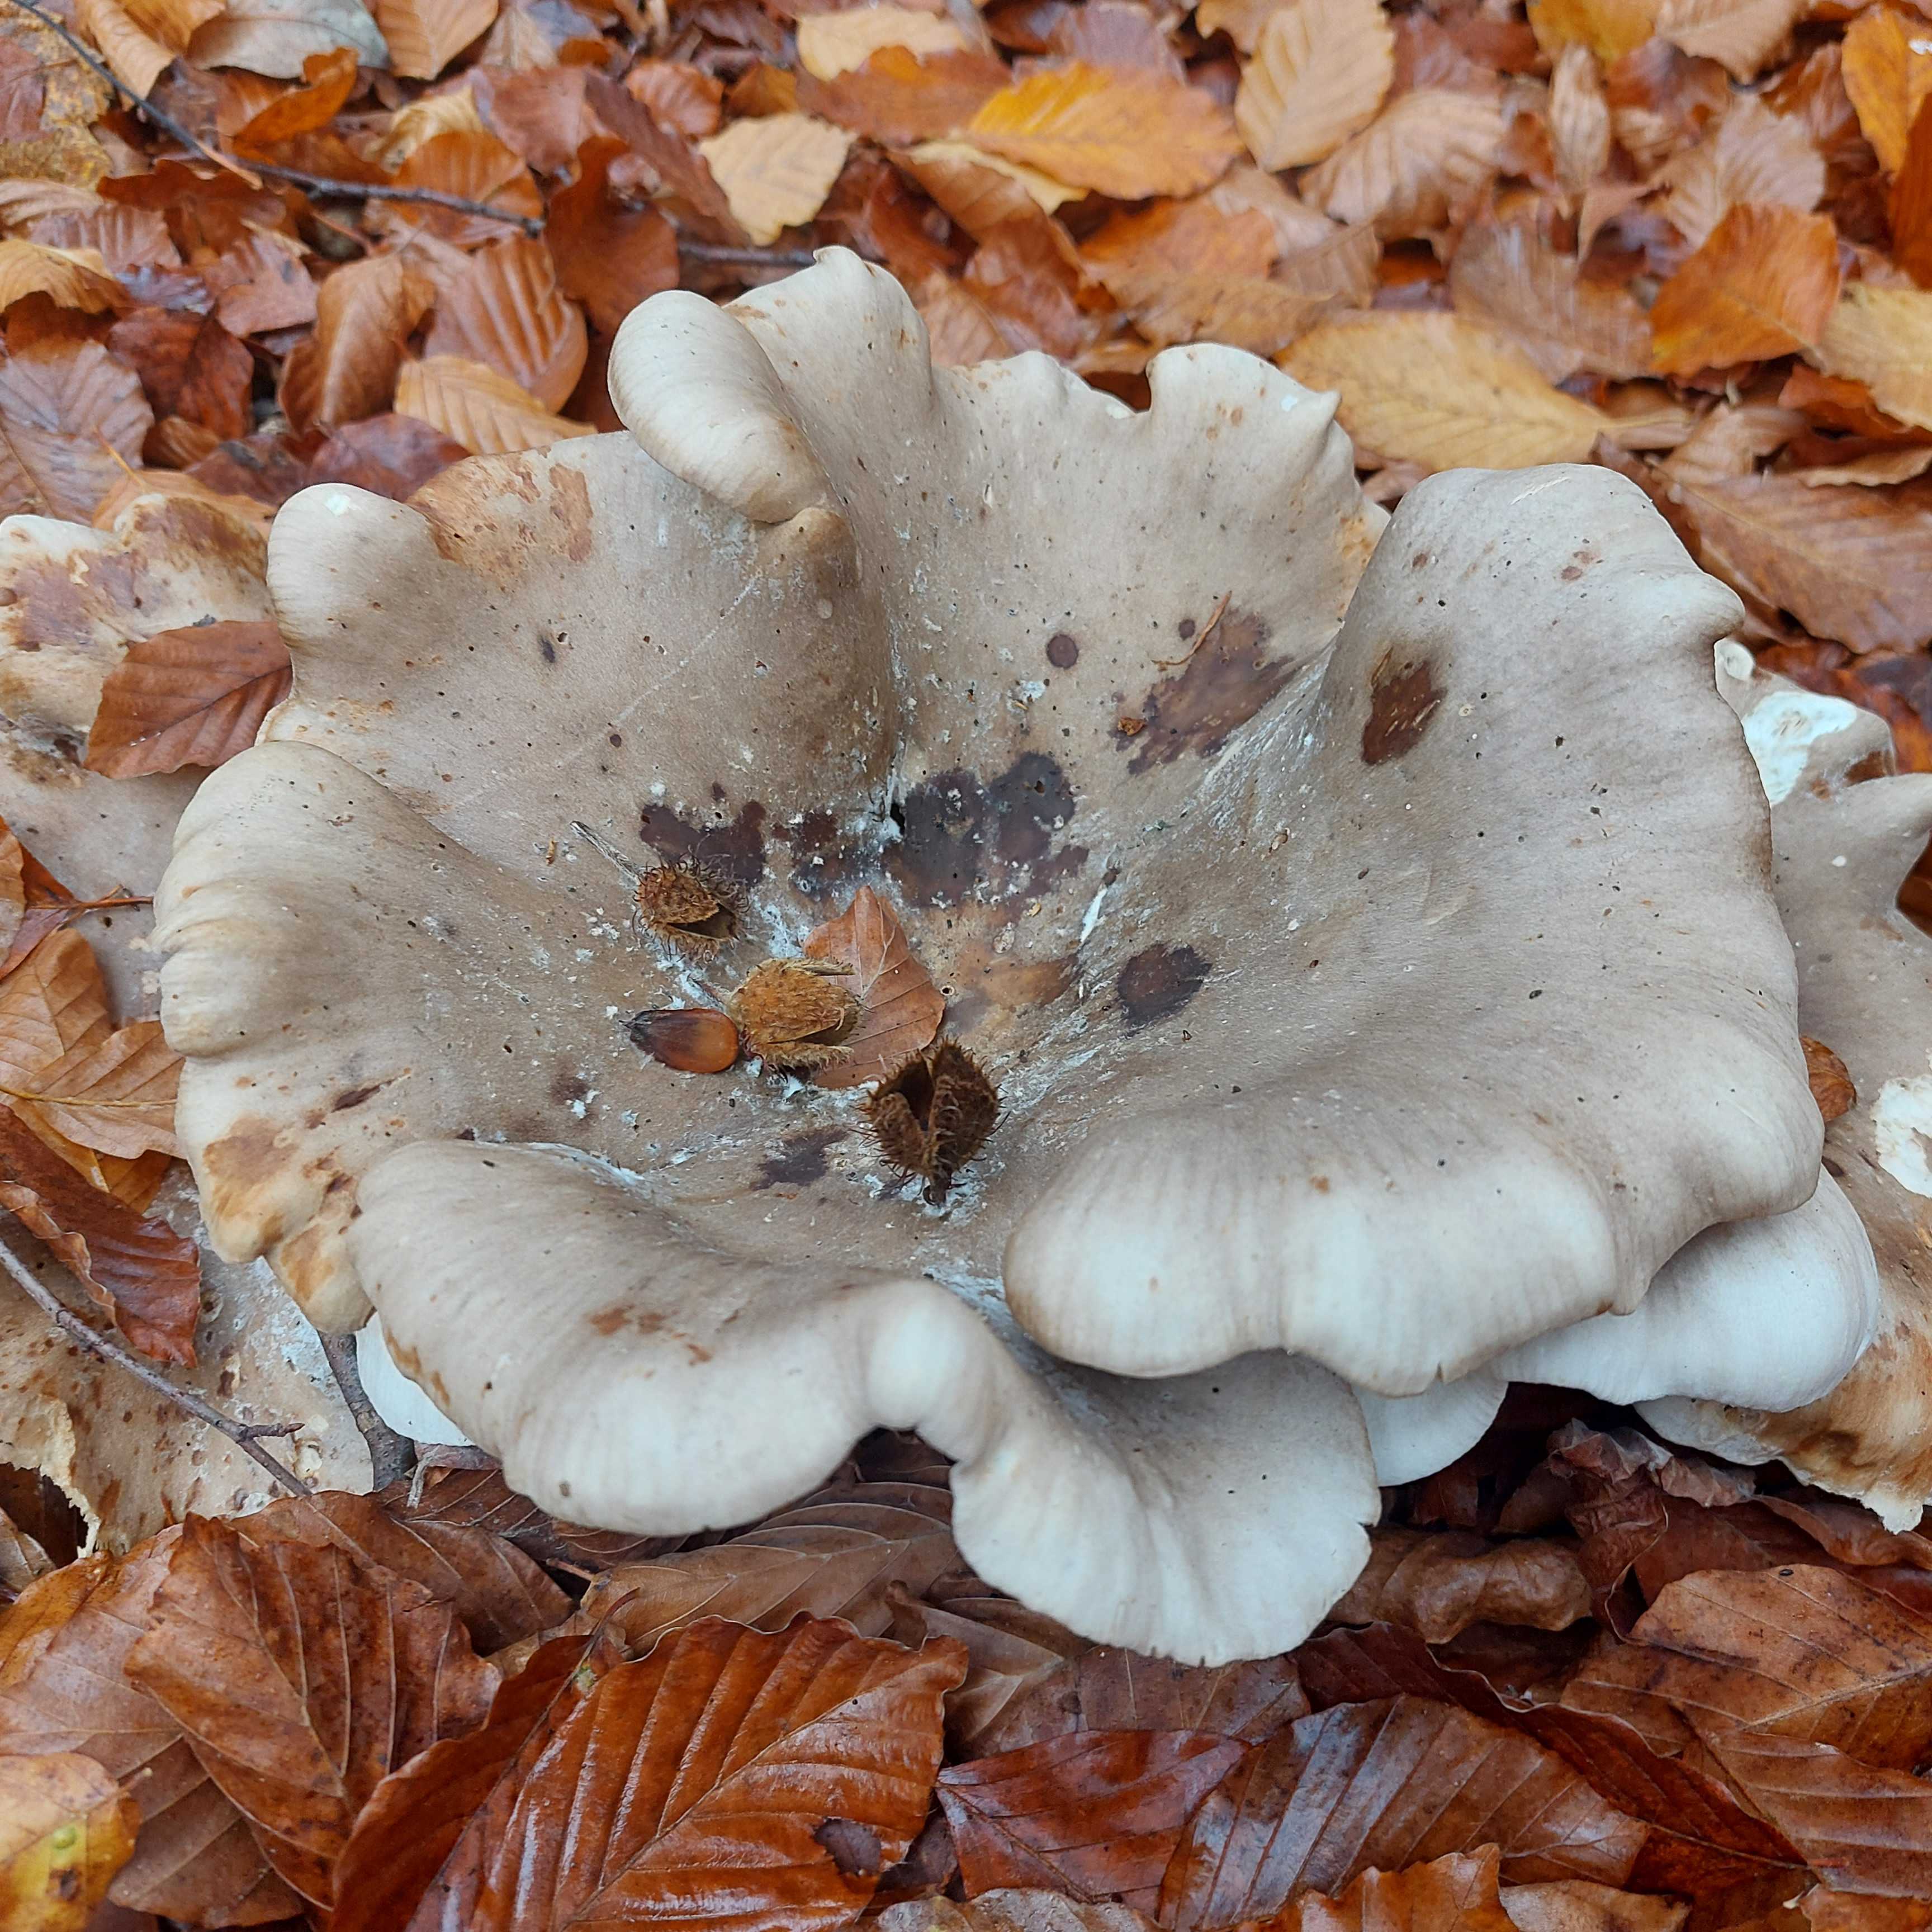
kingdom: Fungi
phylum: Basidiomycota
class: Agaricomycetes
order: Agaricales
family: Tricholomataceae
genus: Clitocybe
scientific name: Clitocybe nebularis
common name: tåge-tragthat
